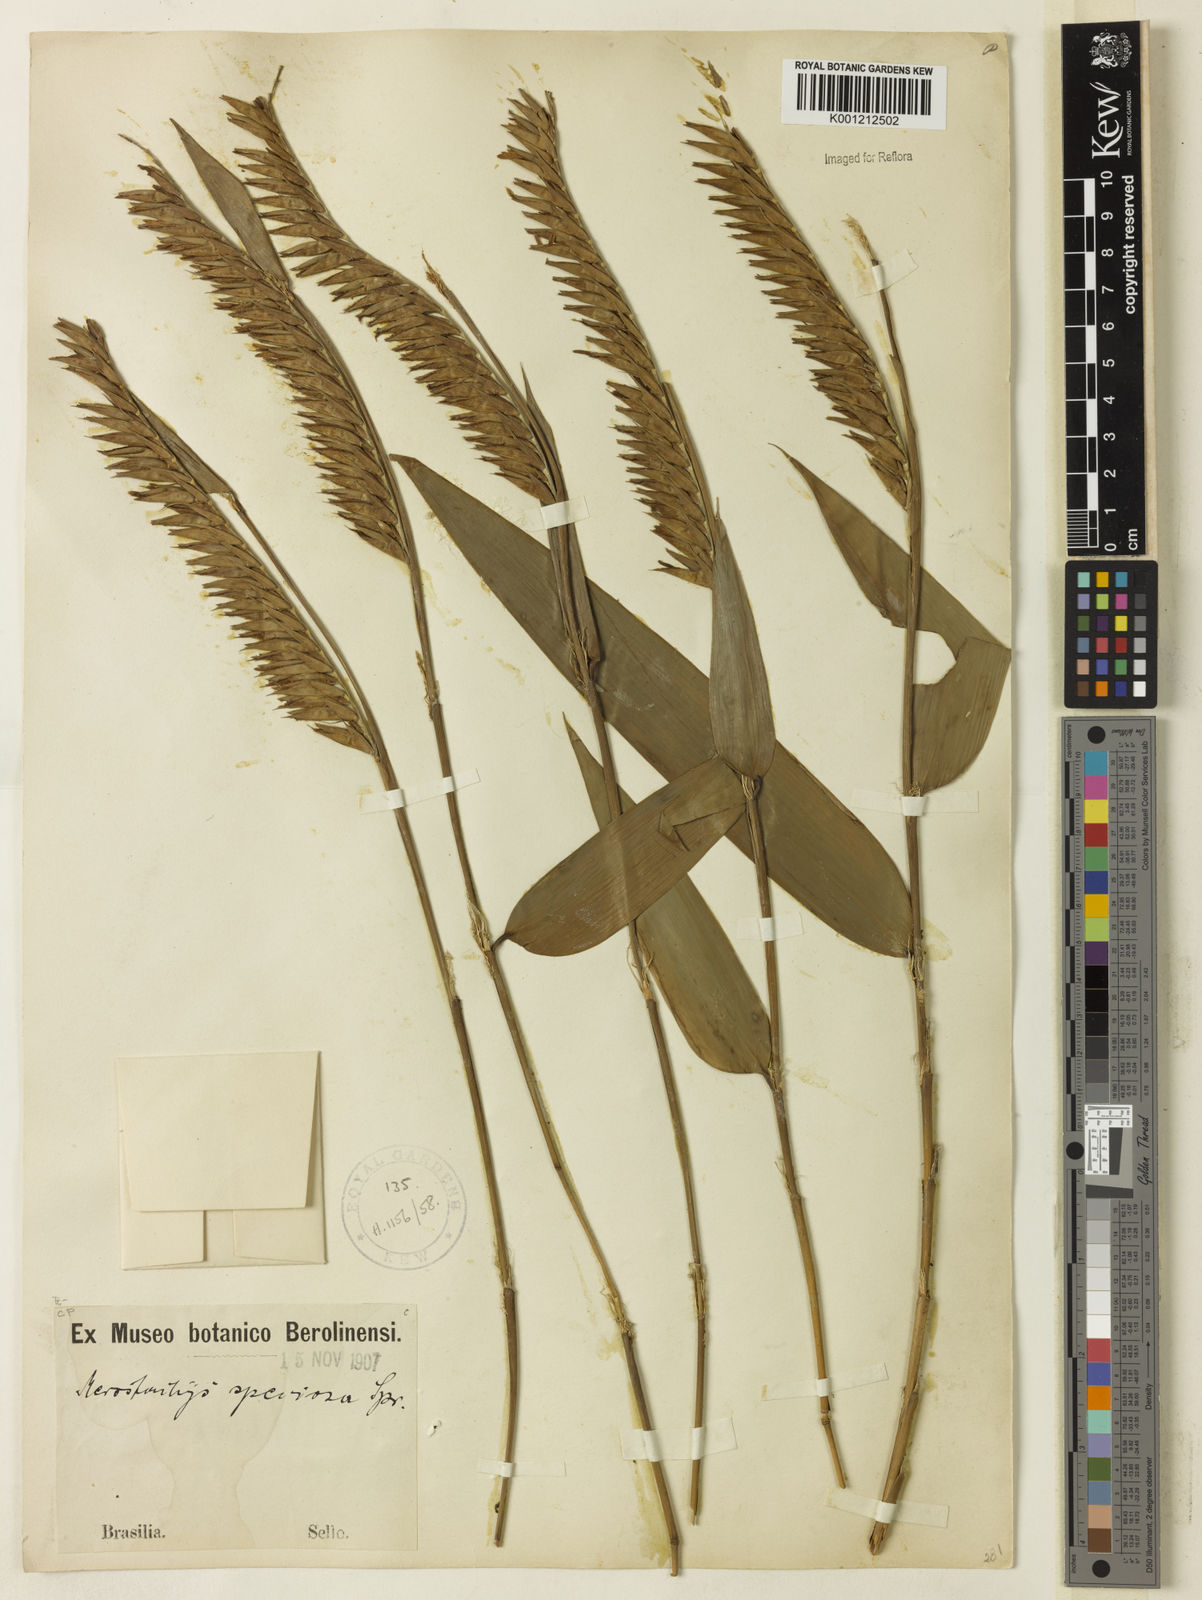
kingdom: Plantae
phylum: Tracheophyta
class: Liliopsida
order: Poales
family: Poaceae
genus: Merostachys
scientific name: Merostachys speciosa
